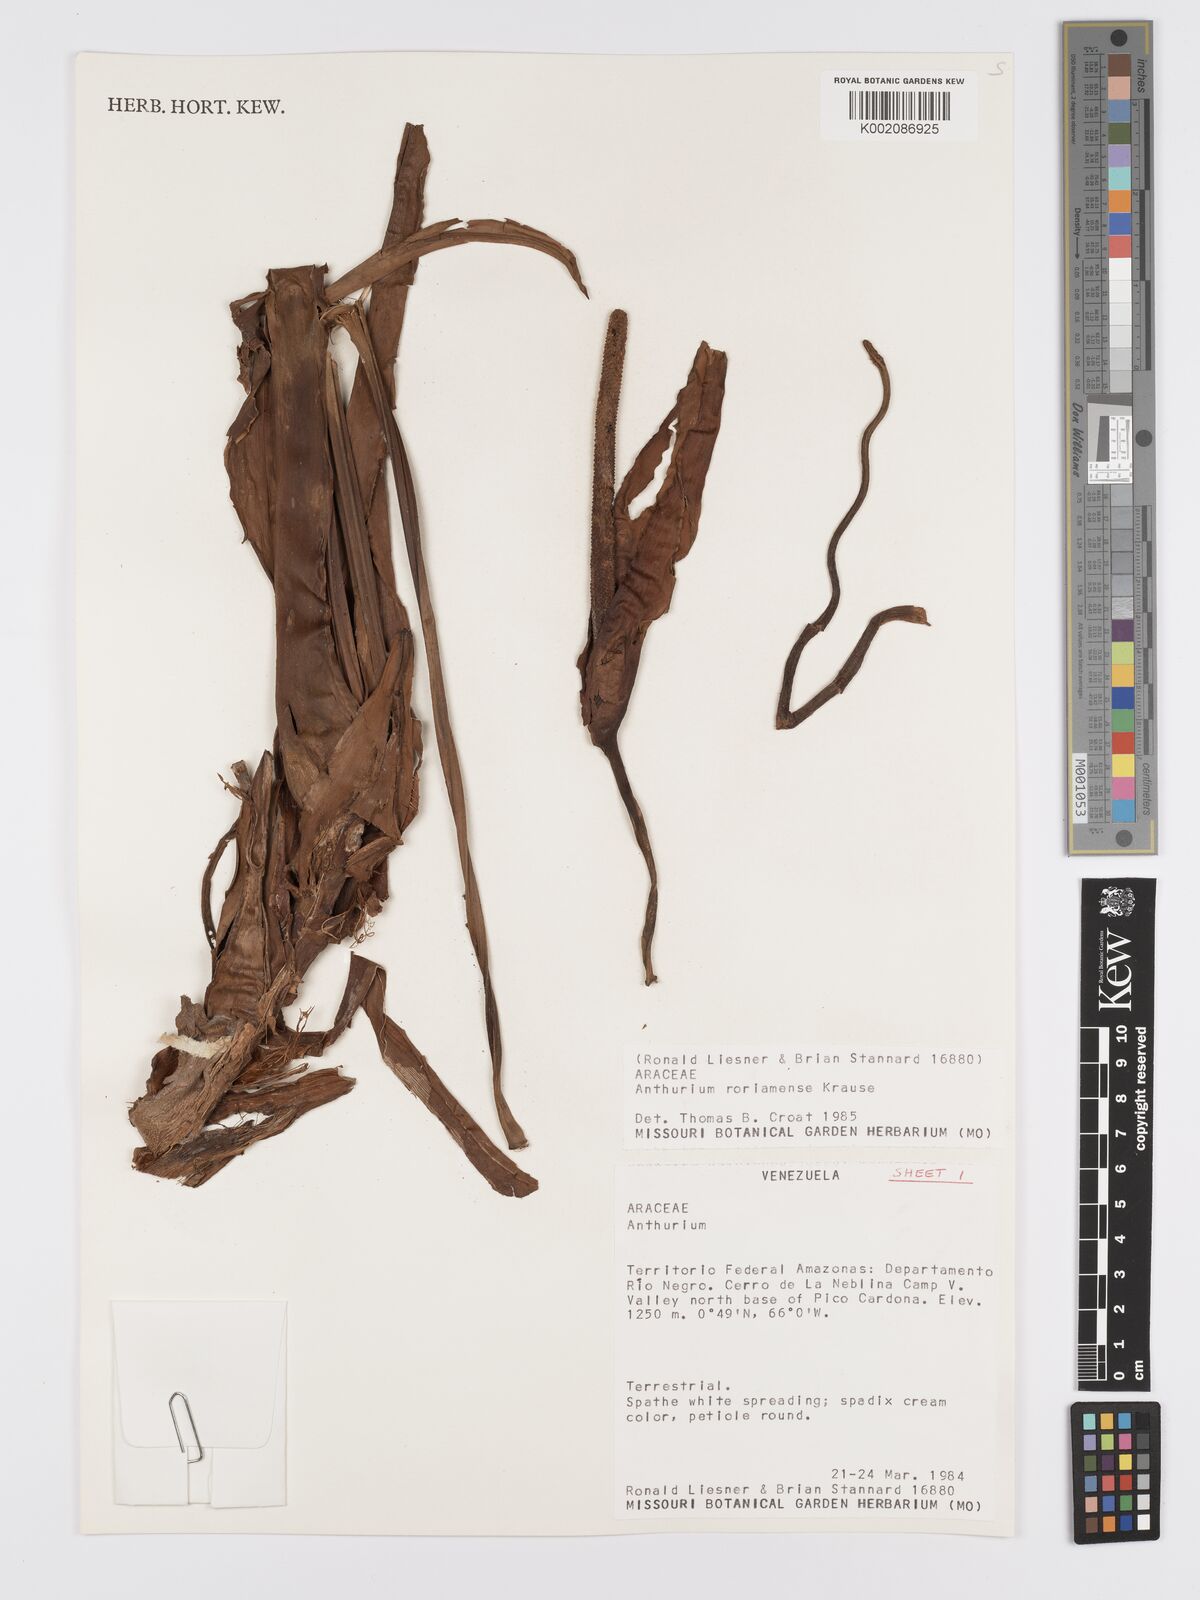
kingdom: Plantae
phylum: Tracheophyta
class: Liliopsida
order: Alismatales
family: Araceae
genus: Anthurium
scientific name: Anthurium roraimense
